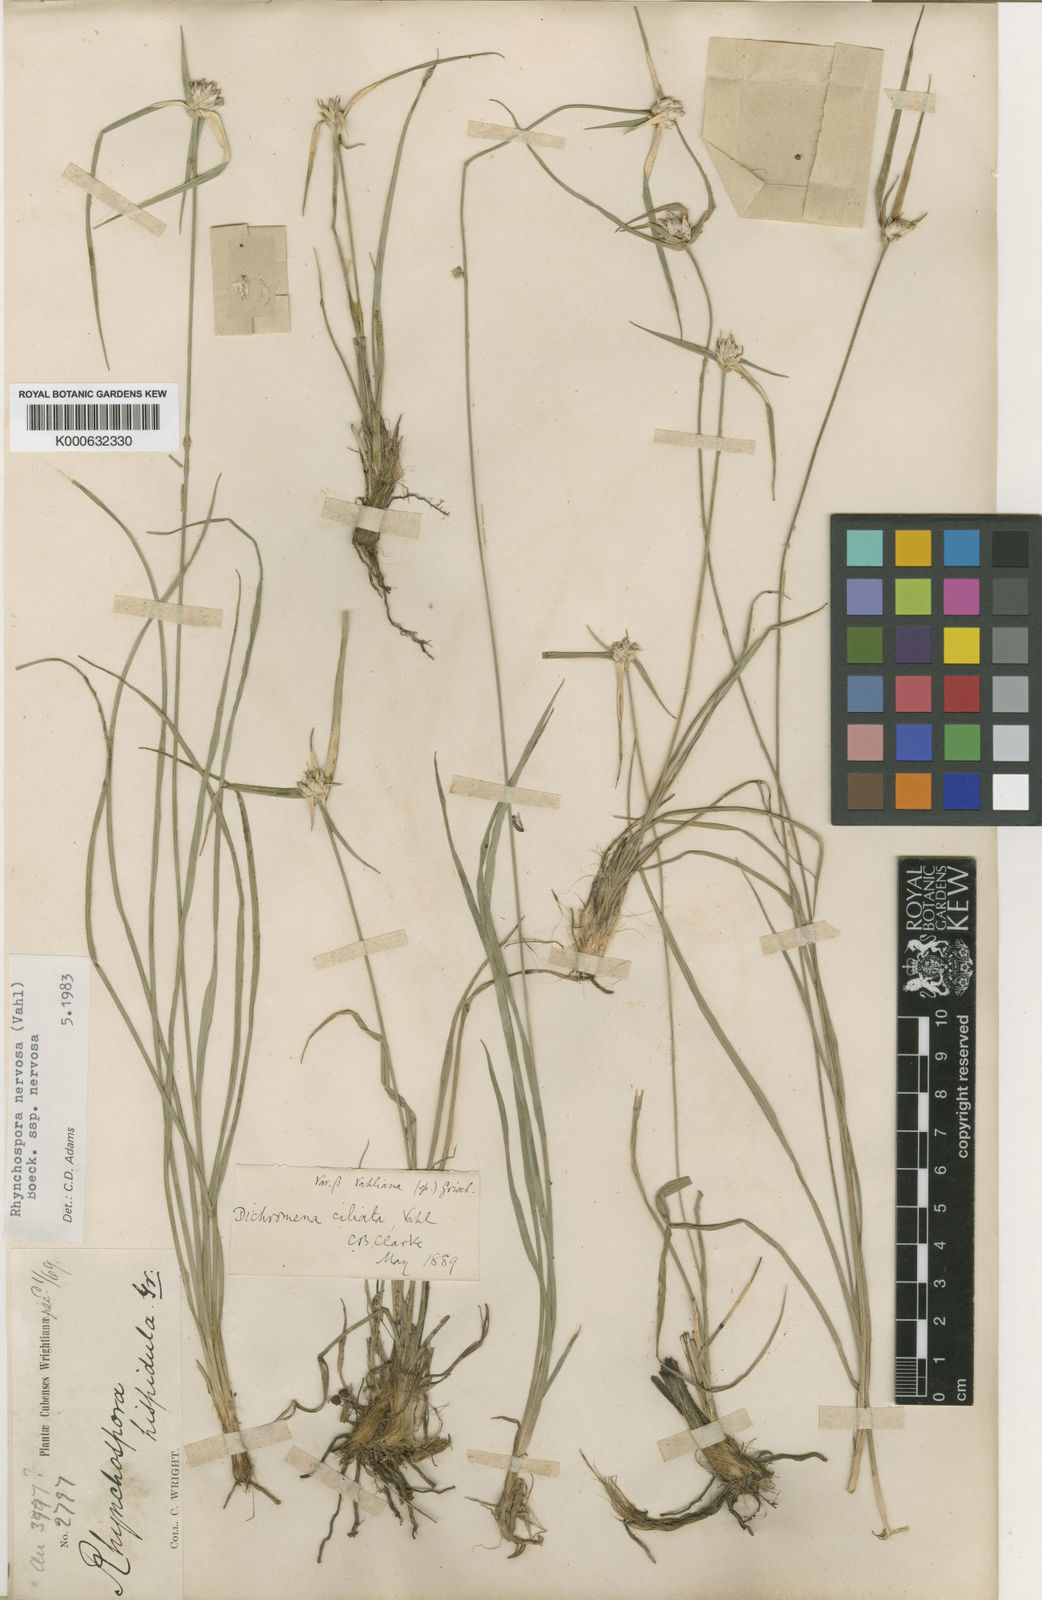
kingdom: Plantae
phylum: Tracheophyta
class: Liliopsida
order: Poales
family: Cyperaceae
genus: Rhynchospora
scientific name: Rhynchospora nervosa
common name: Star sedge
